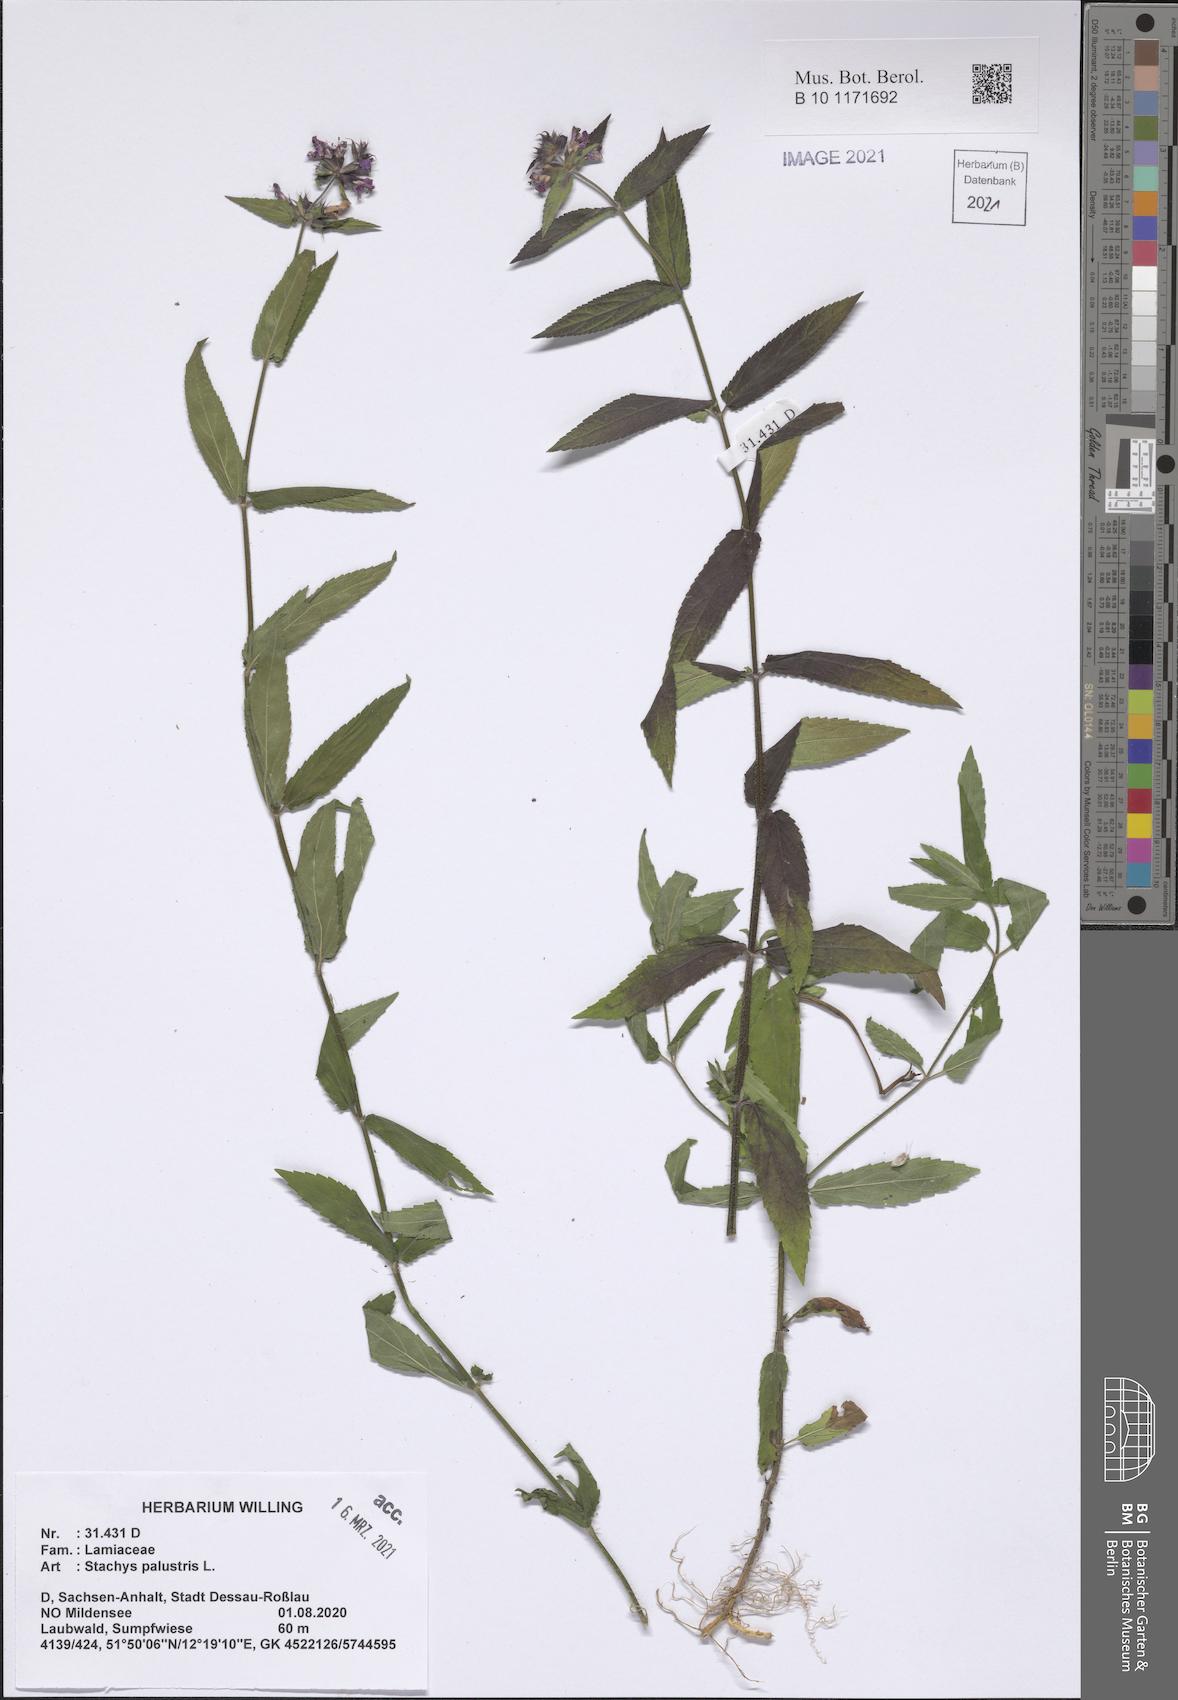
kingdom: Plantae
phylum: Tracheophyta
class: Magnoliopsida
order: Lamiales
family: Lamiaceae
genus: Stachys
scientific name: Stachys palustris
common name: Marsh woundwort
